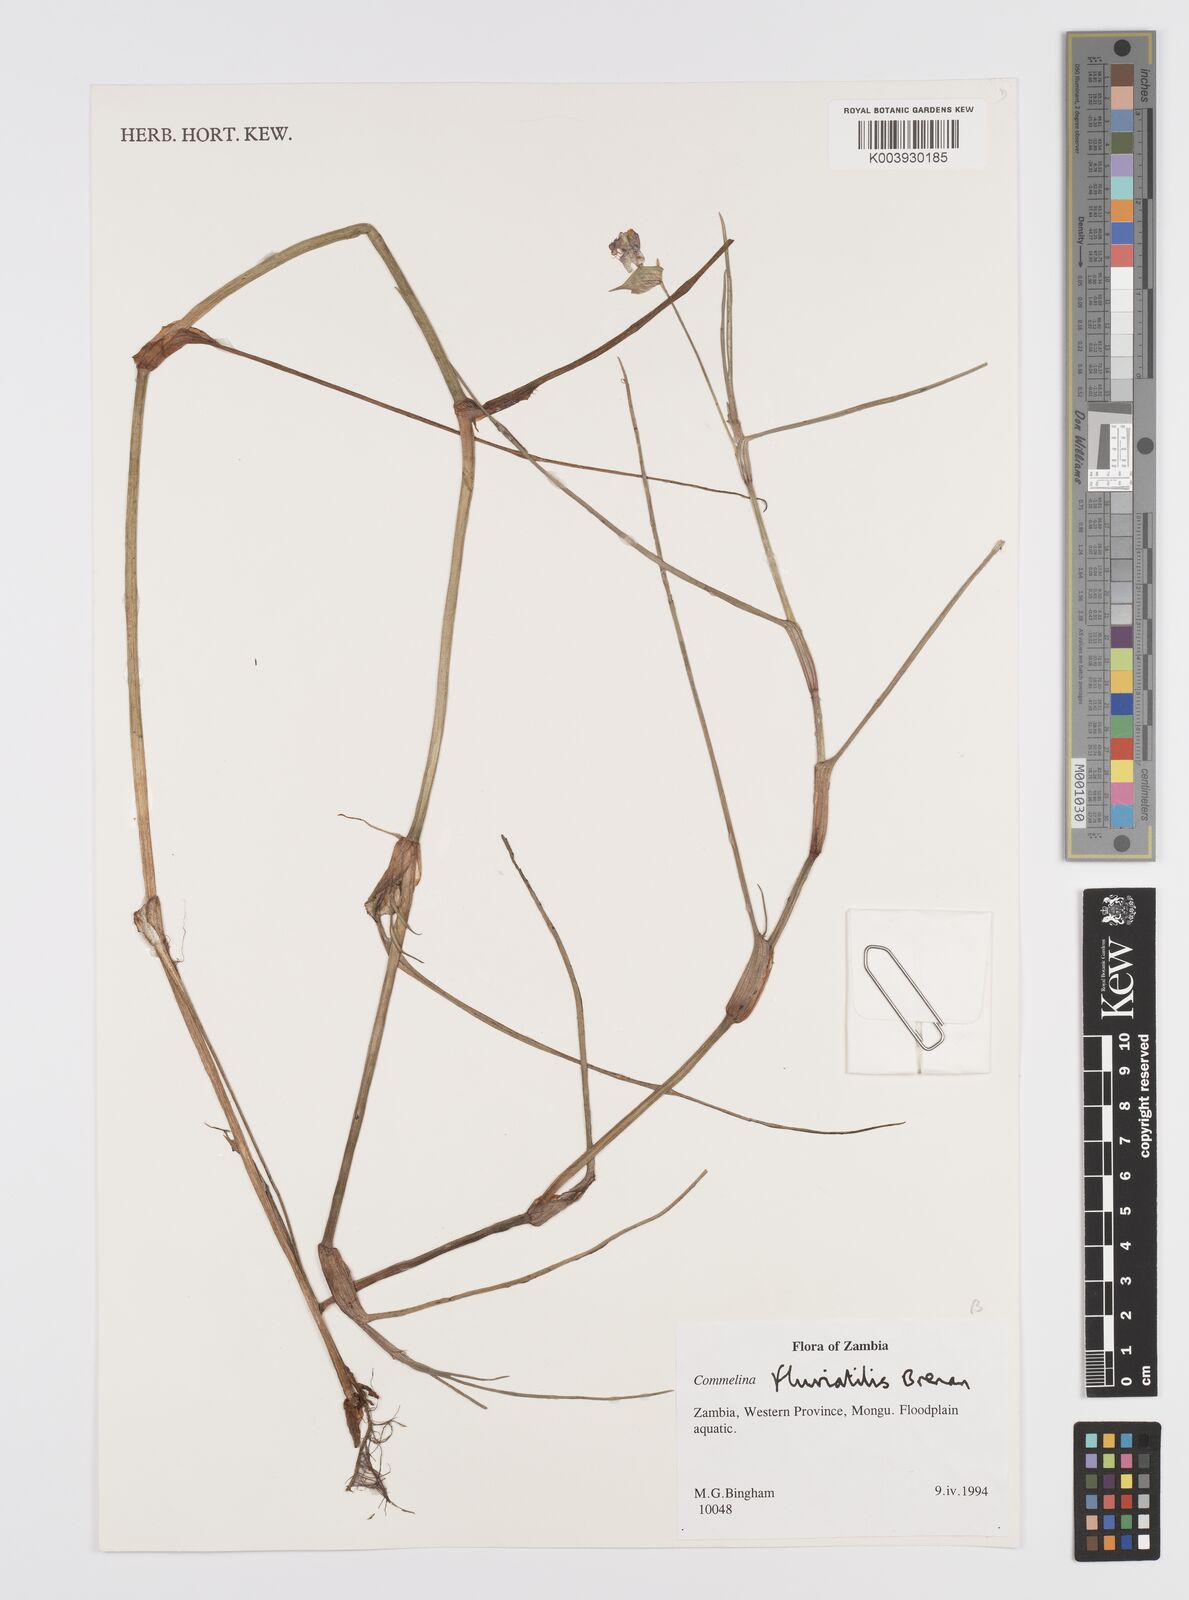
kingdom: Plantae
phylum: Tracheophyta
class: Liliopsida
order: Commelinales
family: Commelinaceae
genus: Commelina
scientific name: Commelina fluviatilis
